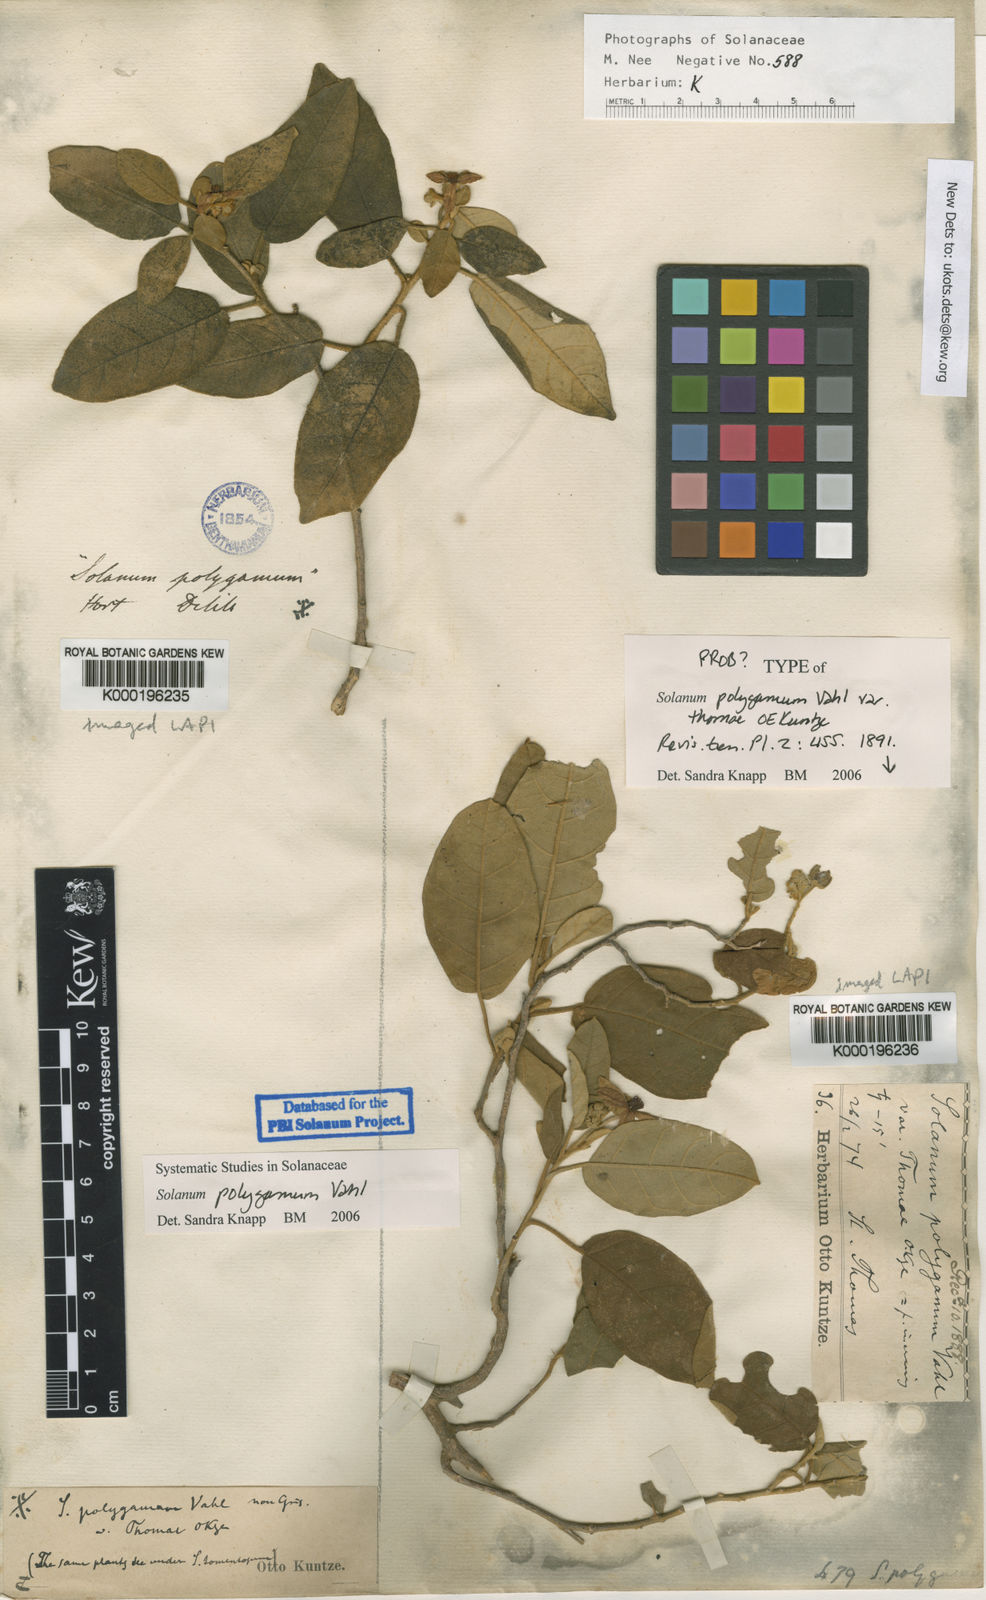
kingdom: Plantae
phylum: Tracheophyta
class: Magnoliopsida
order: Solanales
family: Solanaceae
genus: Solanum
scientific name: Solanum polygamum
